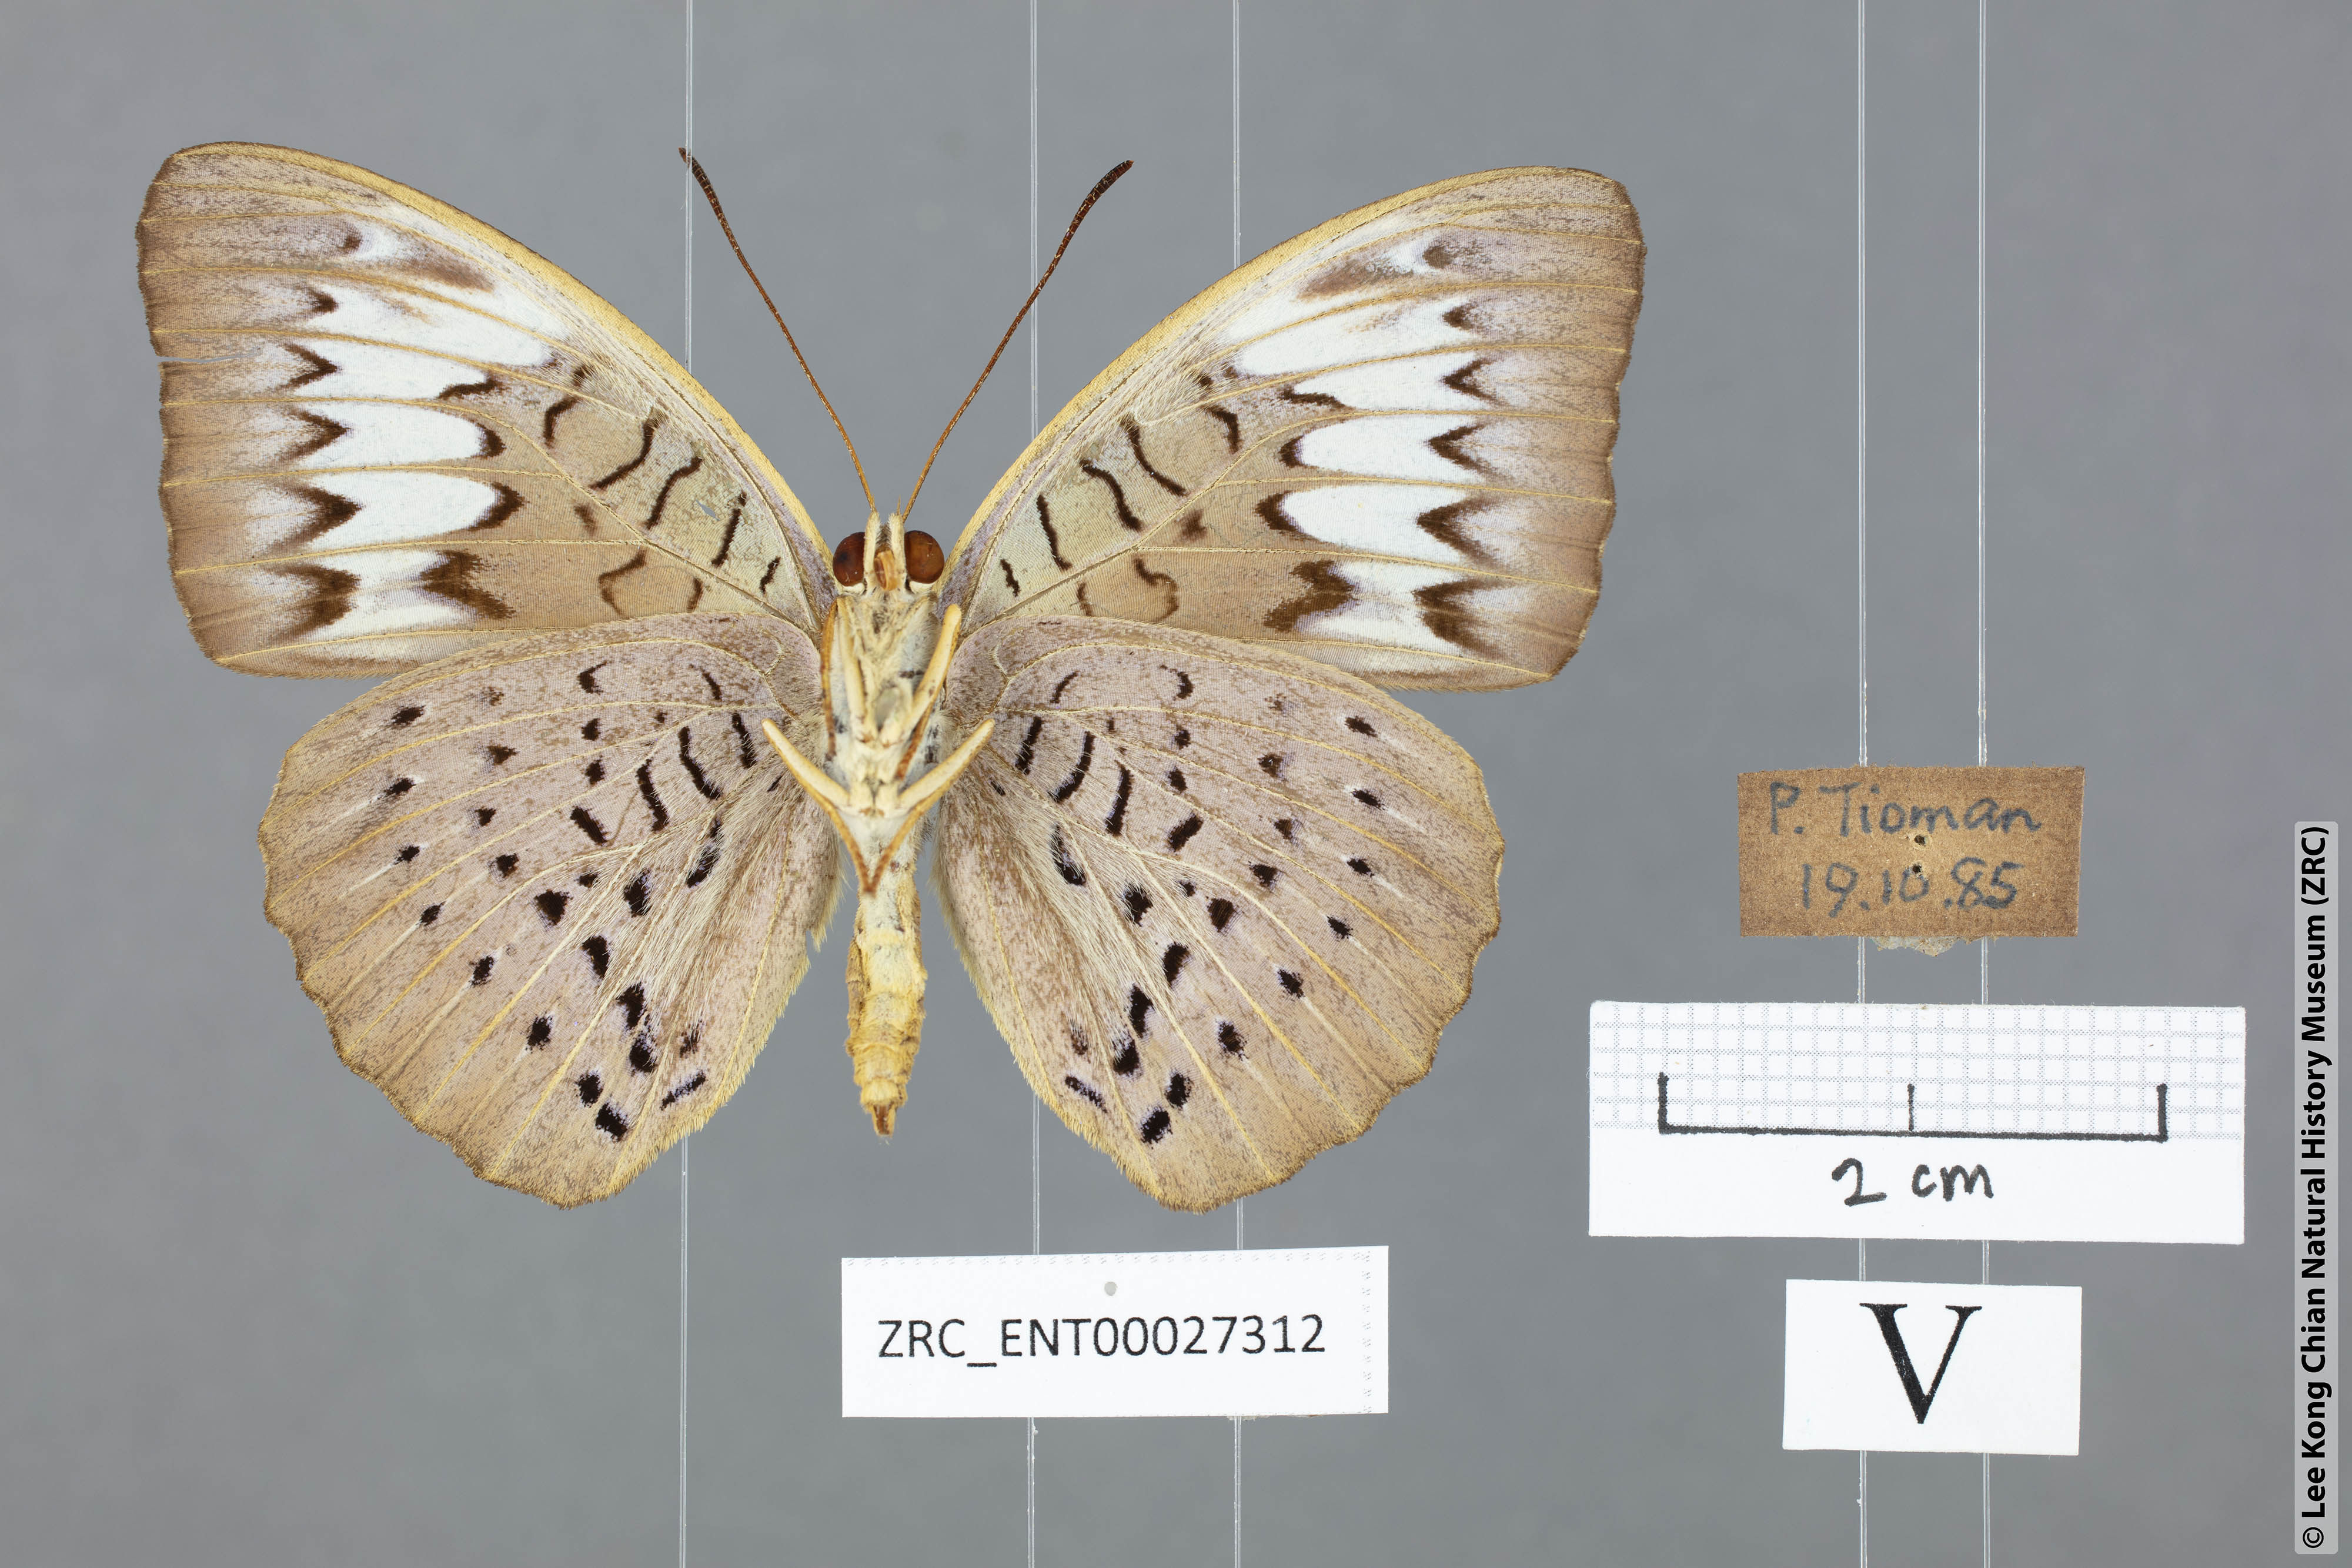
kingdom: Animalia
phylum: Arthropoda
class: Insecta
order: Lepidoptera
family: Nymphalidae
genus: Tanaecia
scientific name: Tanaecia pelea
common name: Malay viscount
